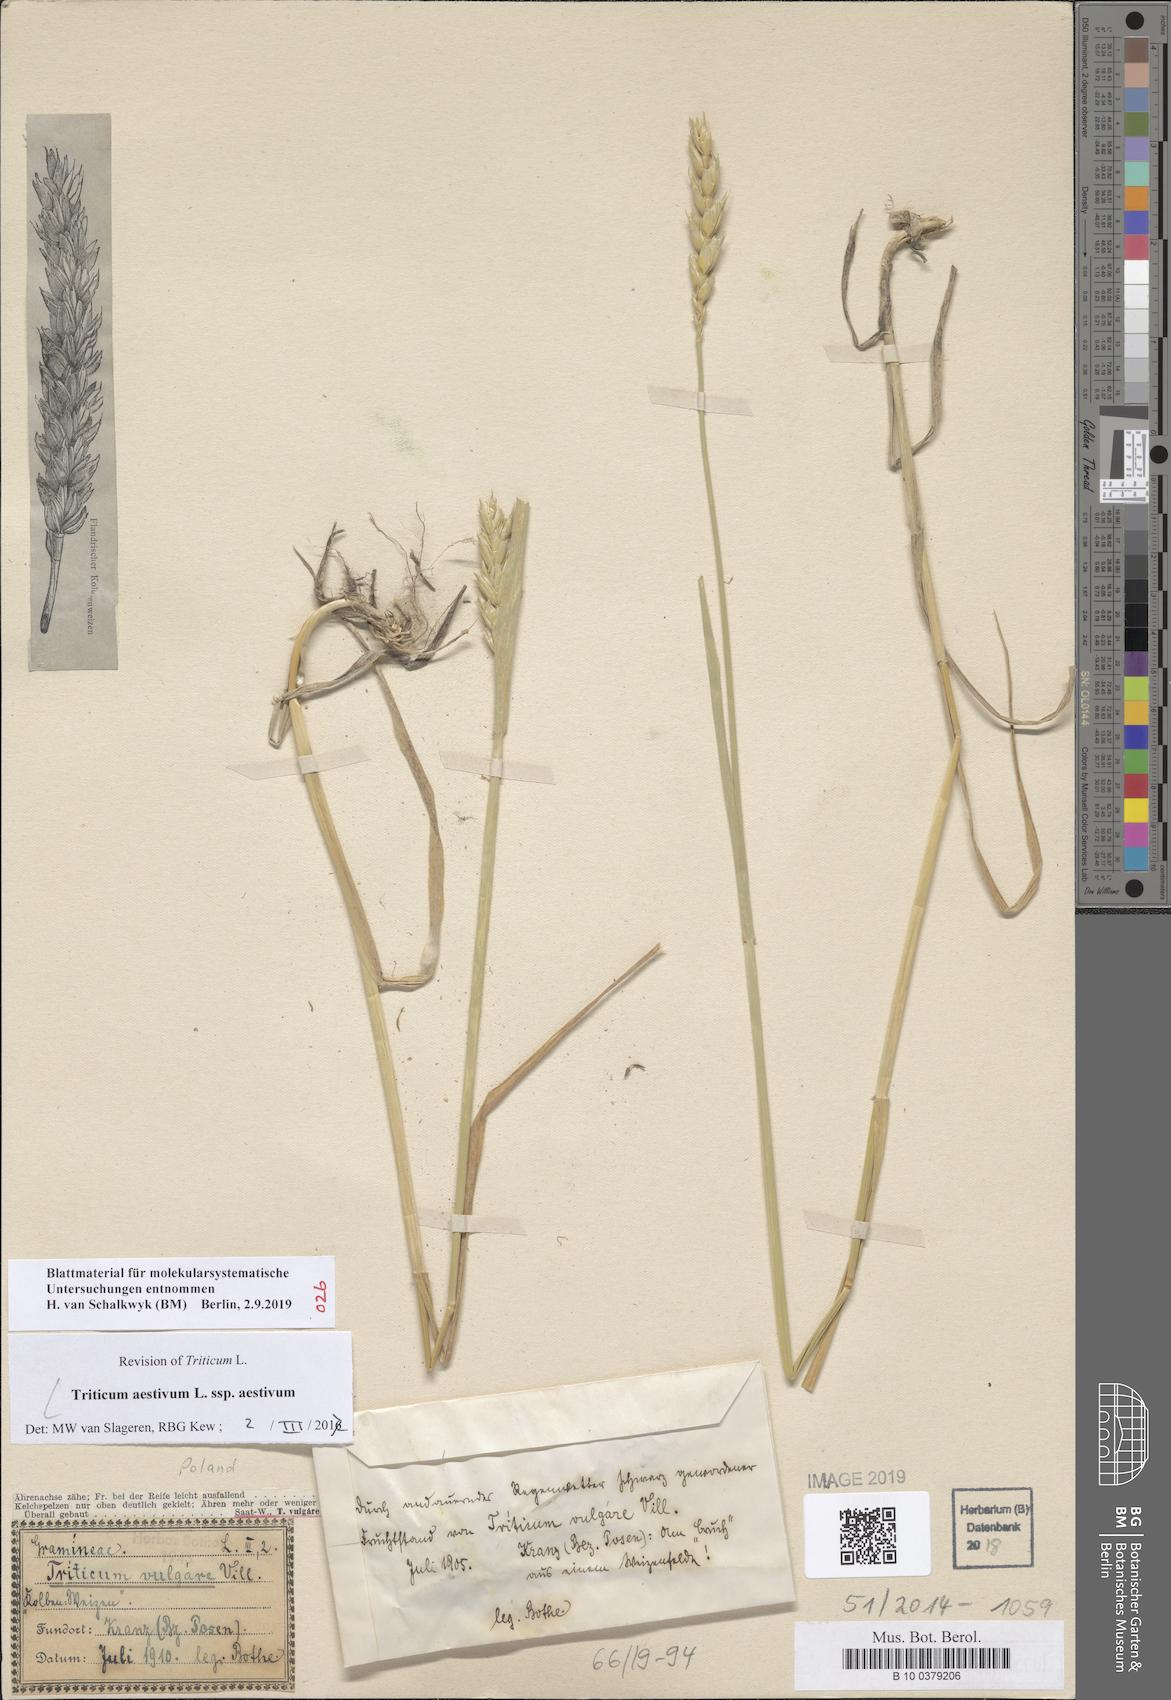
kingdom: Plantae
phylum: Tracheophyta
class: Liliopsida
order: Poales
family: Poaceae
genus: Triticum
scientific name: Triticum aestivum
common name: Common wheat
